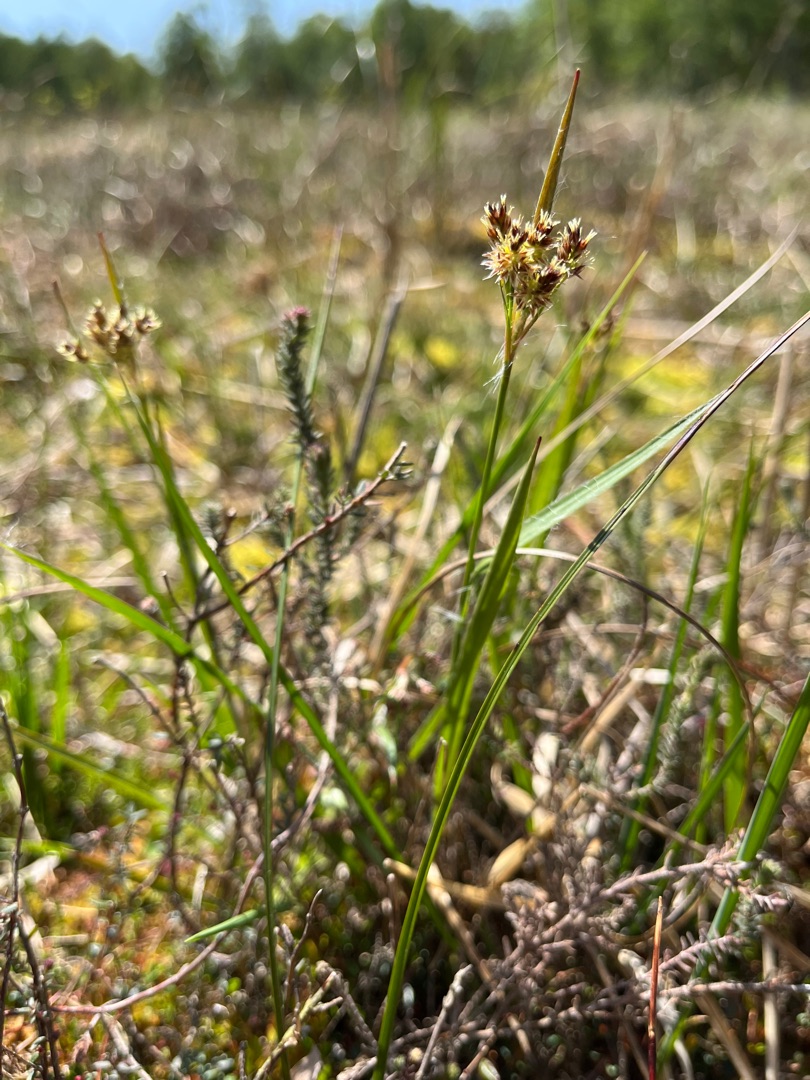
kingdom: Plantae
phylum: Tracheophyta
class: Liliopsida
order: Poales
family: Juncaceae
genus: Luzula
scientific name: Luzula multiflora
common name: Mangeblomstret frytle
